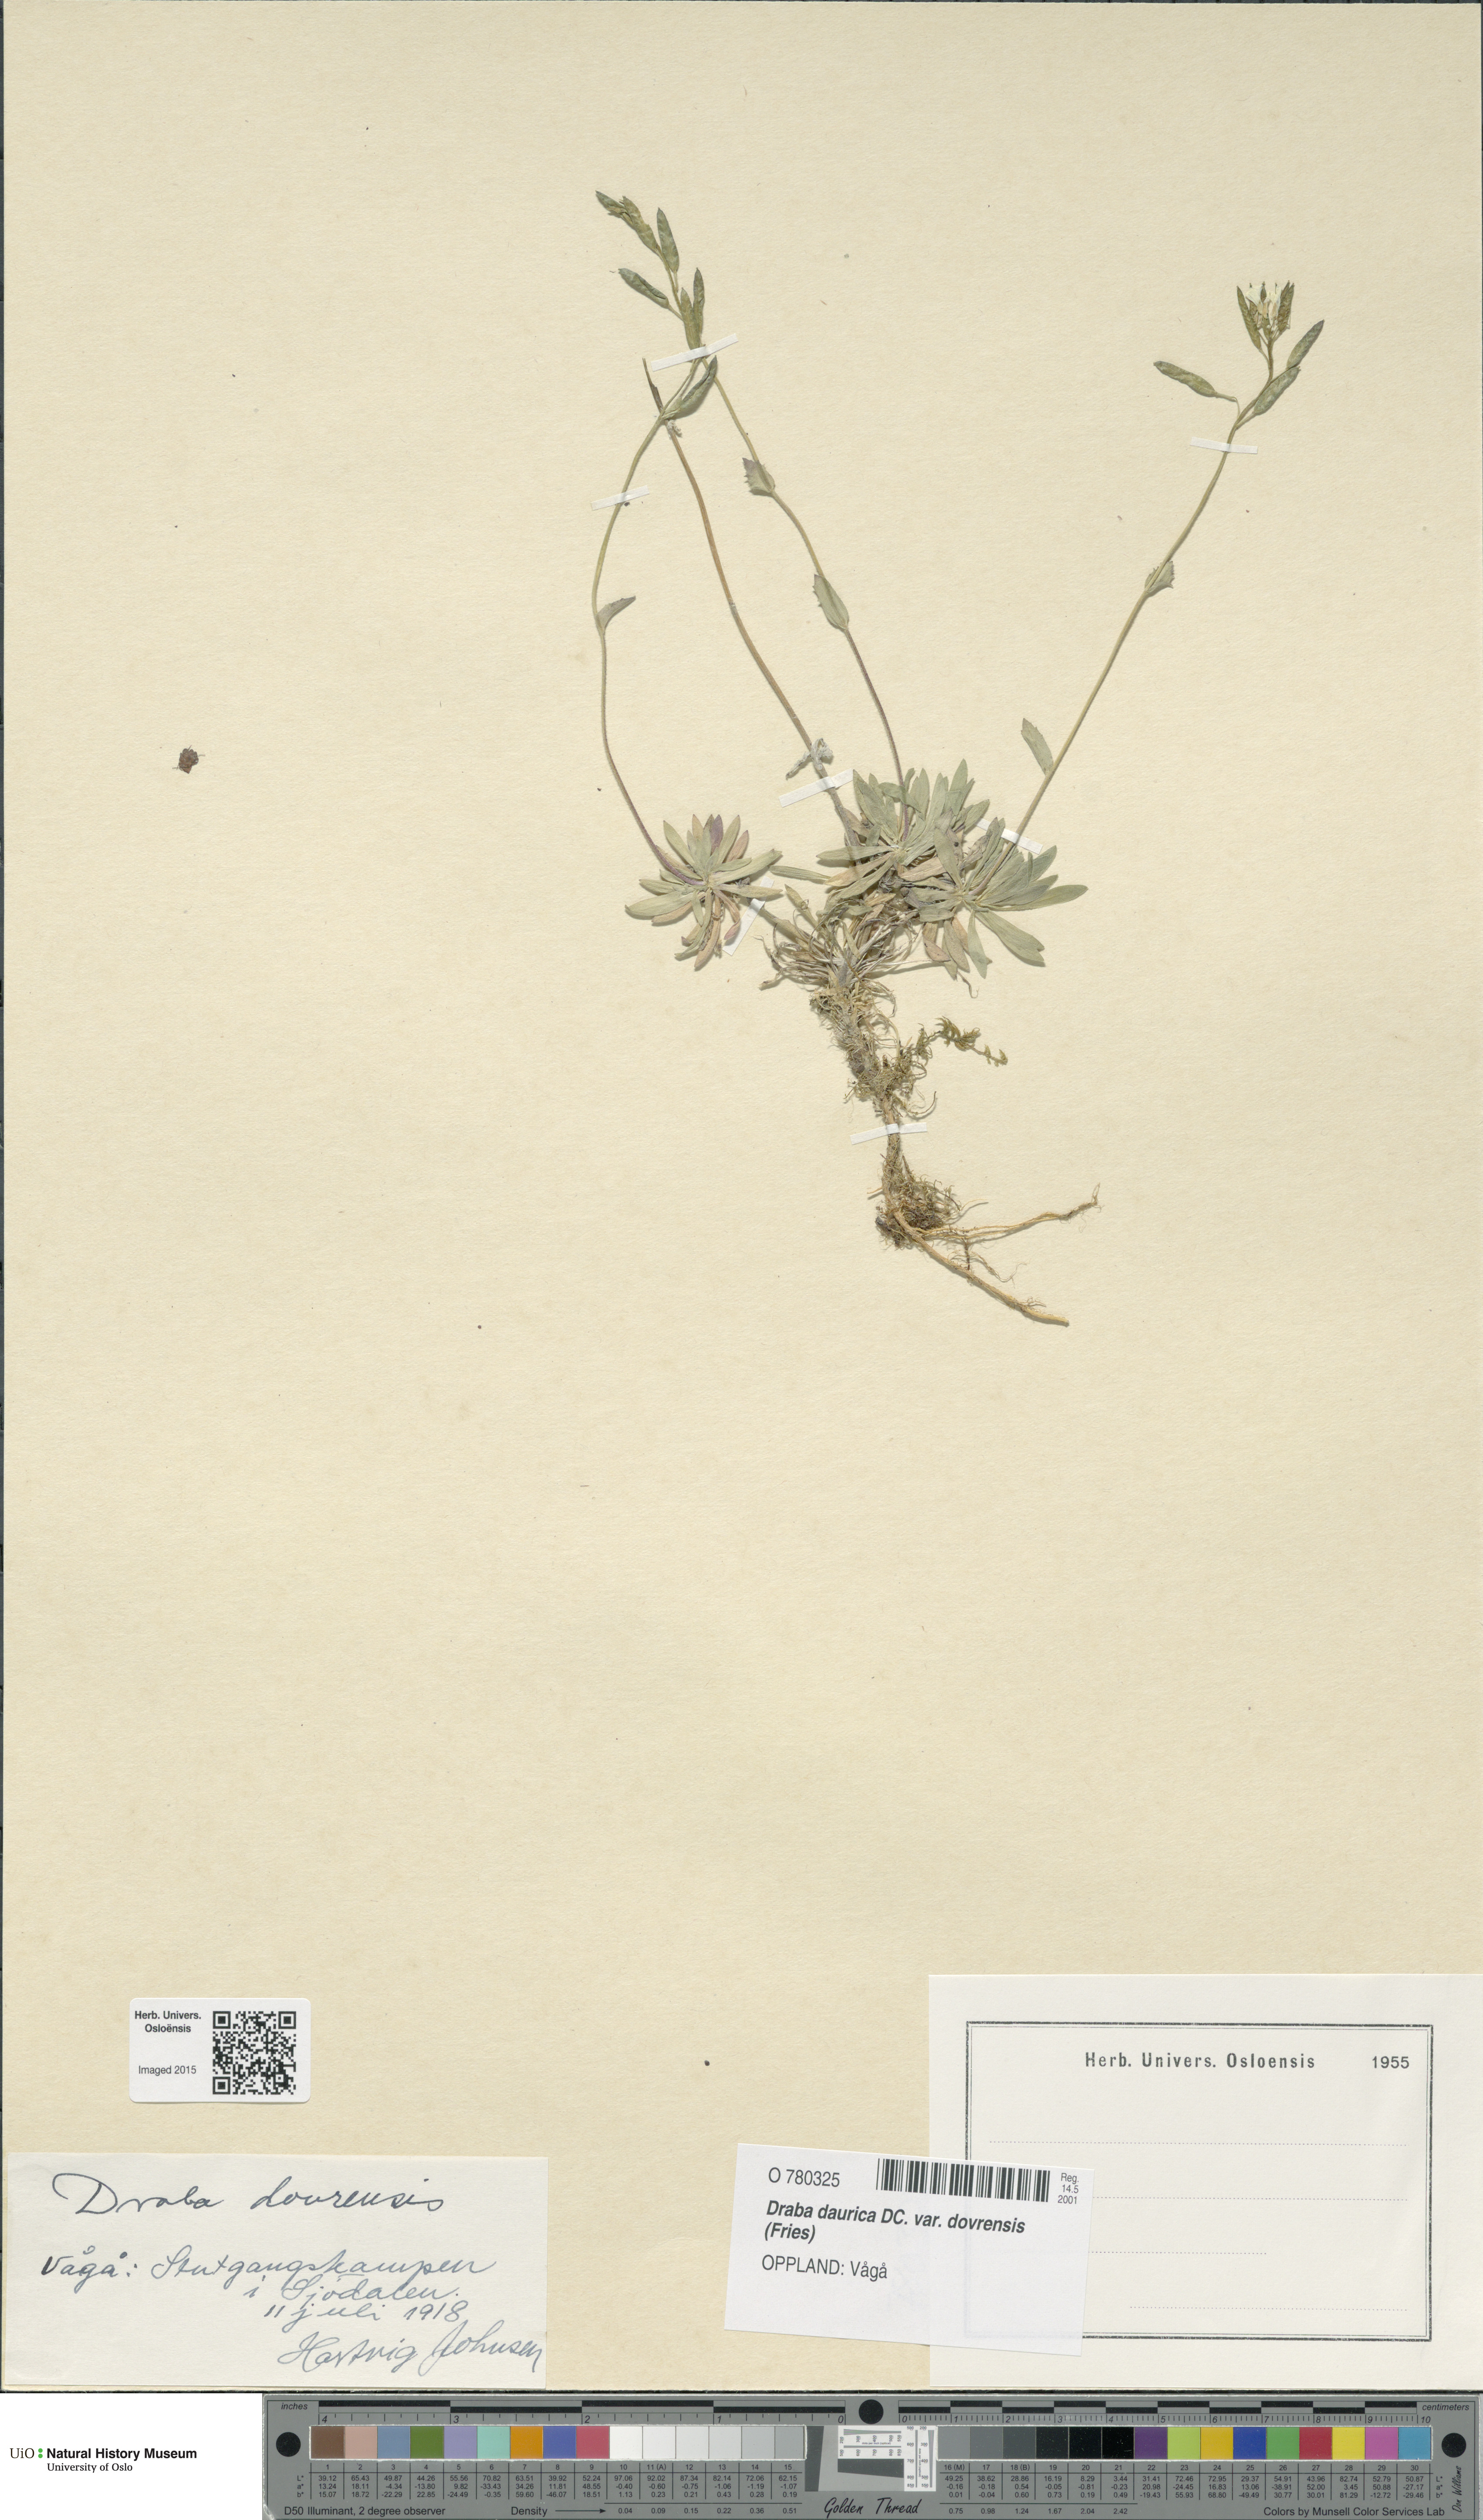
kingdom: Plantae
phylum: Tracheophyta
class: Magnoliopsida
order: Brassicales
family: Brassicaceae
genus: Draba
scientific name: Draba glabella
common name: Glaucous draba
